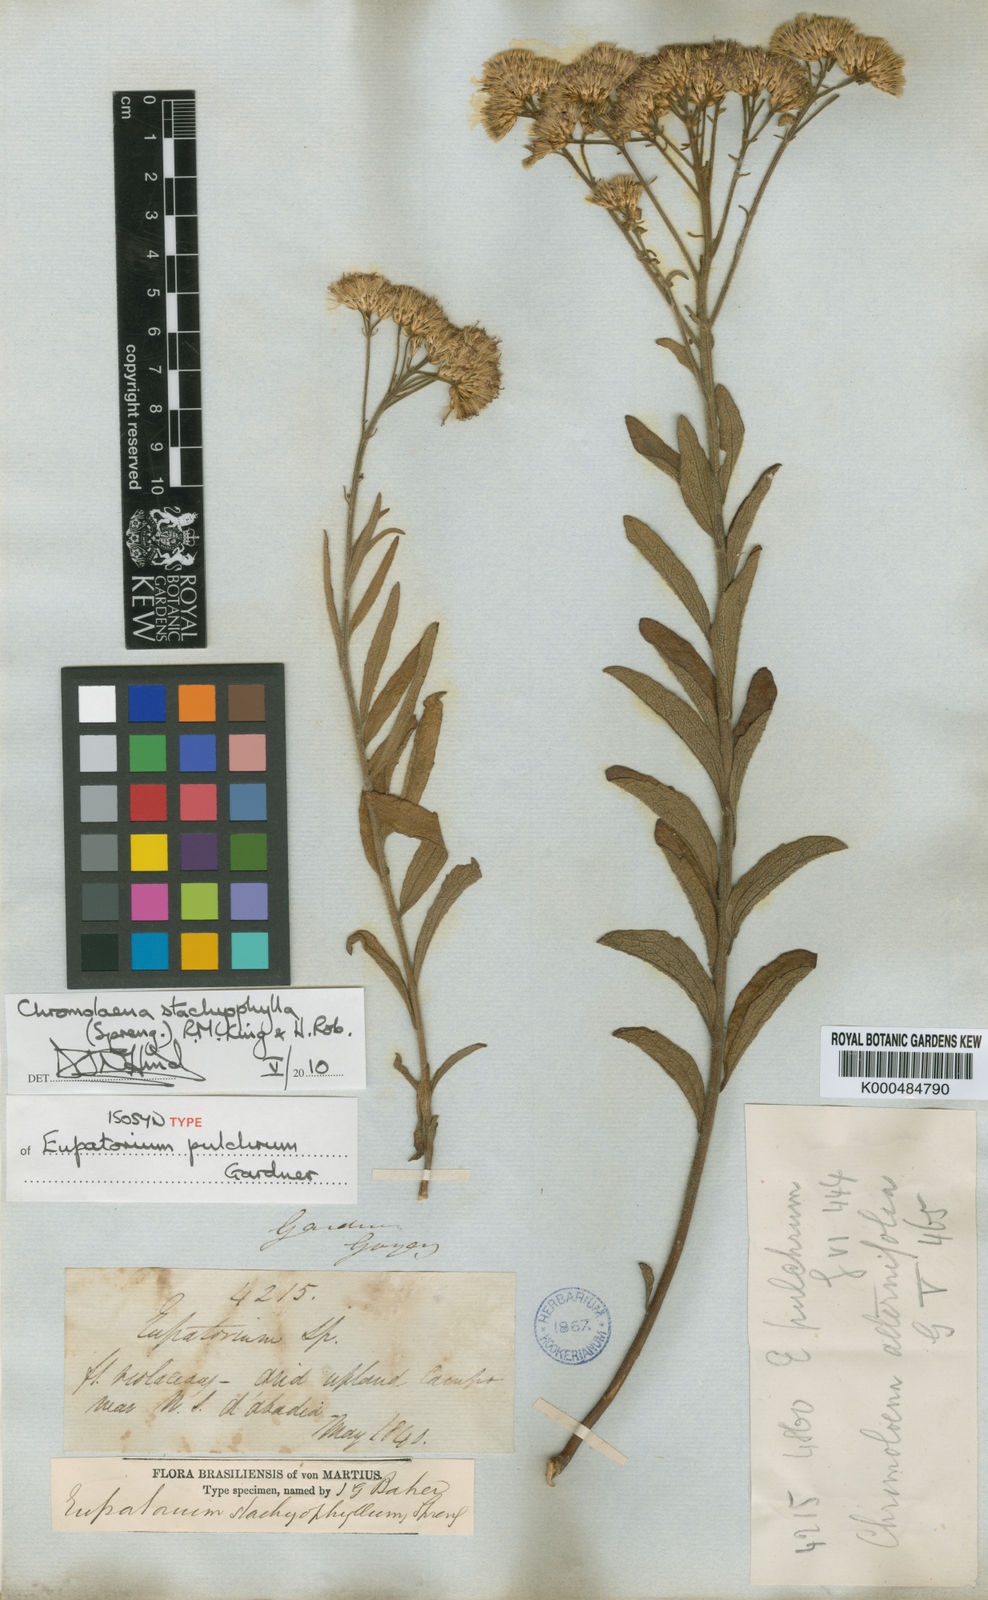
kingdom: Plantae
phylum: Tracheophyta
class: Magnoliopsida
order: Asterales
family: Asteraceae
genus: Chromolaena
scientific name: Chromolaena stachyophylla
